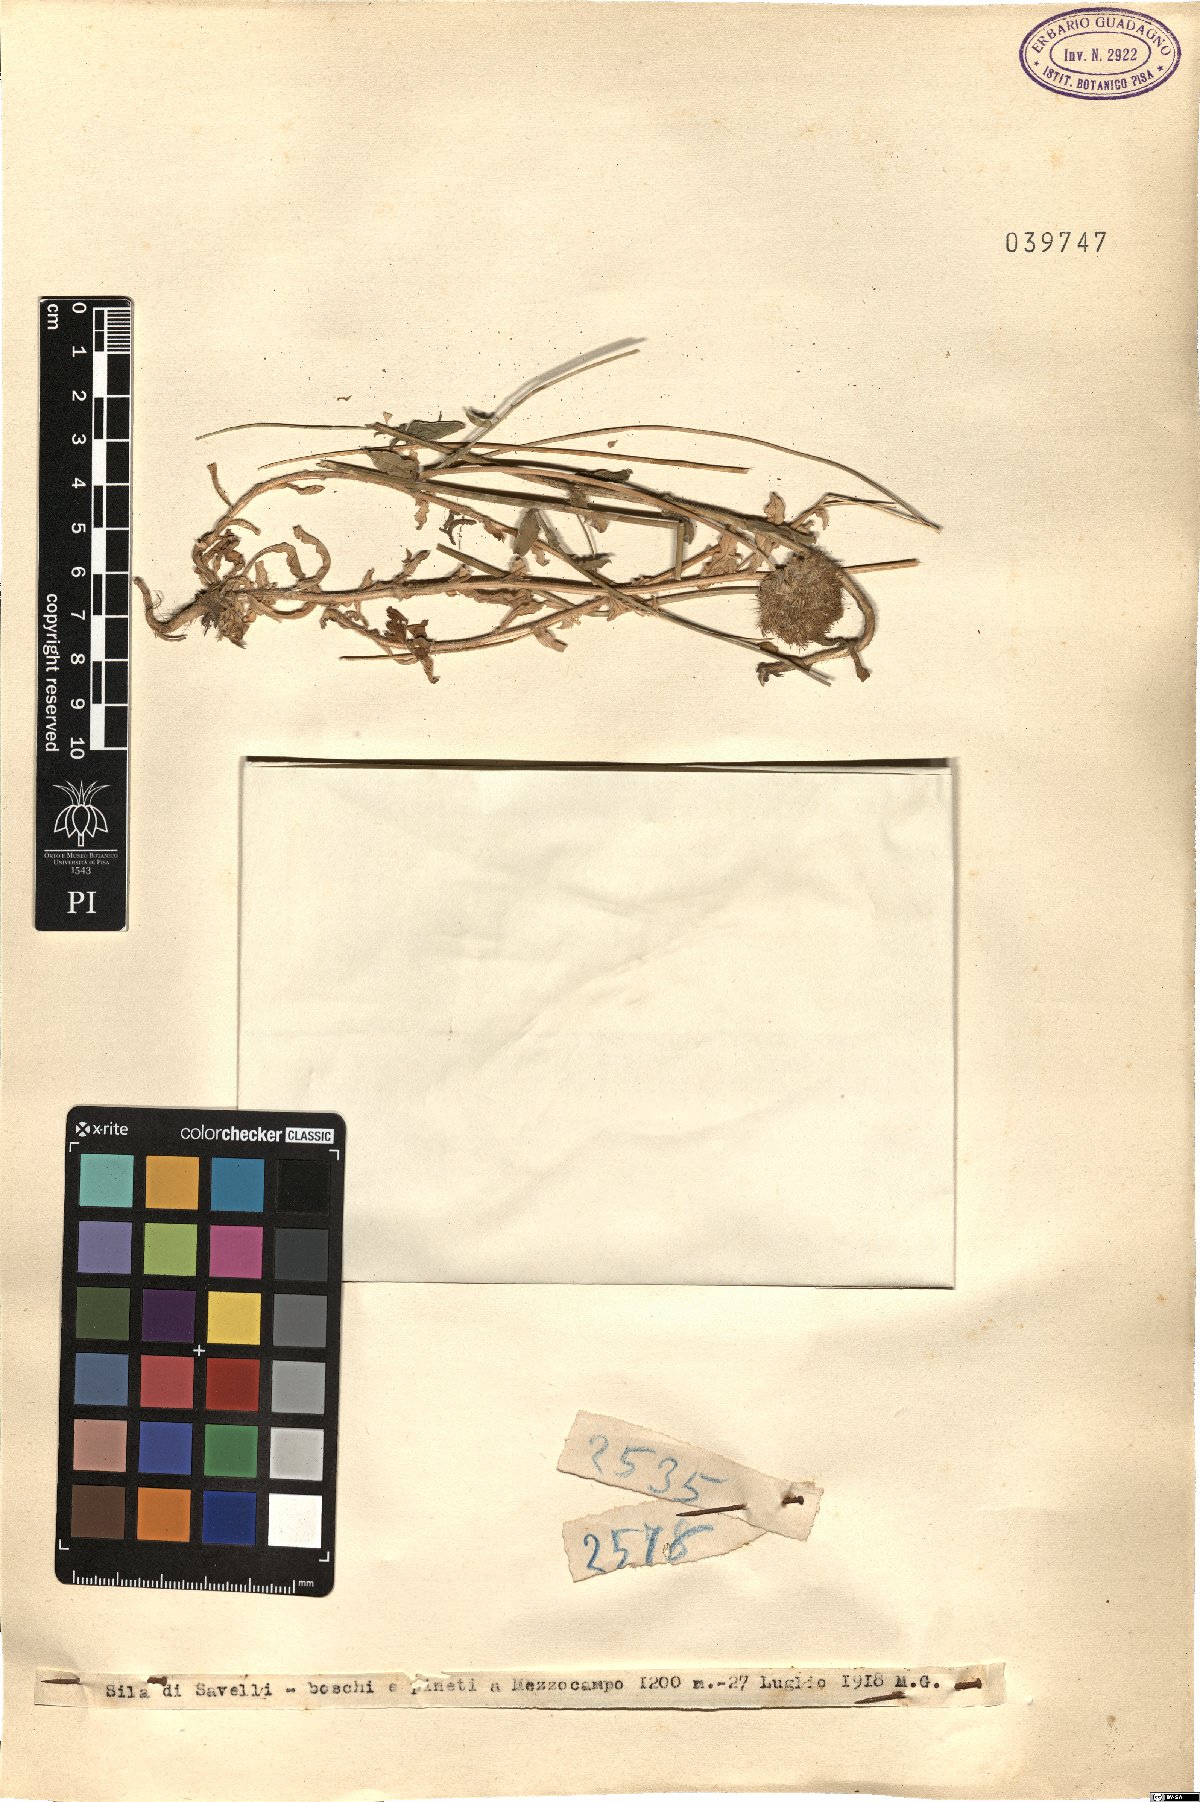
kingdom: Plantae
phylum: Tracheophyta
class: Magnoliopsida
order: Asterales
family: Campanulaceae
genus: Jasione
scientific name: Jasione
